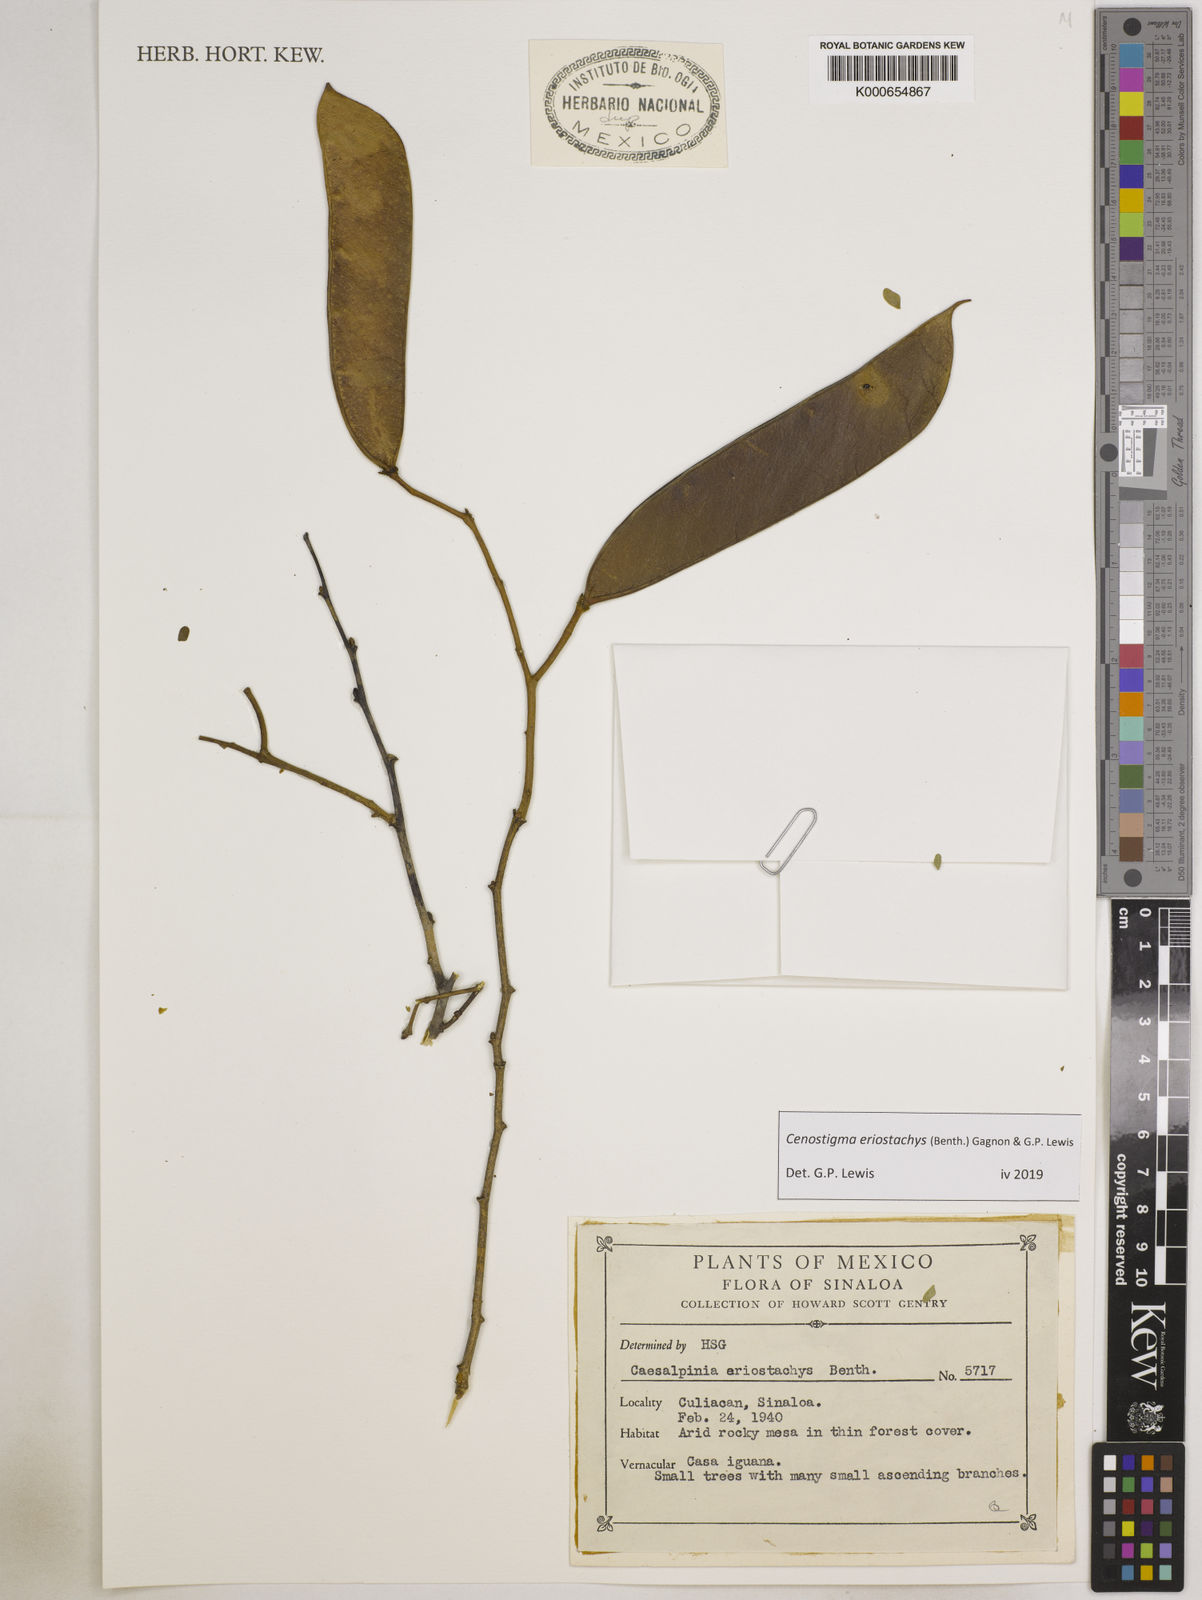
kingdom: Plantae
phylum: Tracheophyta
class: Magnoliopsida
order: Fabales
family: Fabaceae
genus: Cenostigma
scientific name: Cenostigma eriostachys
